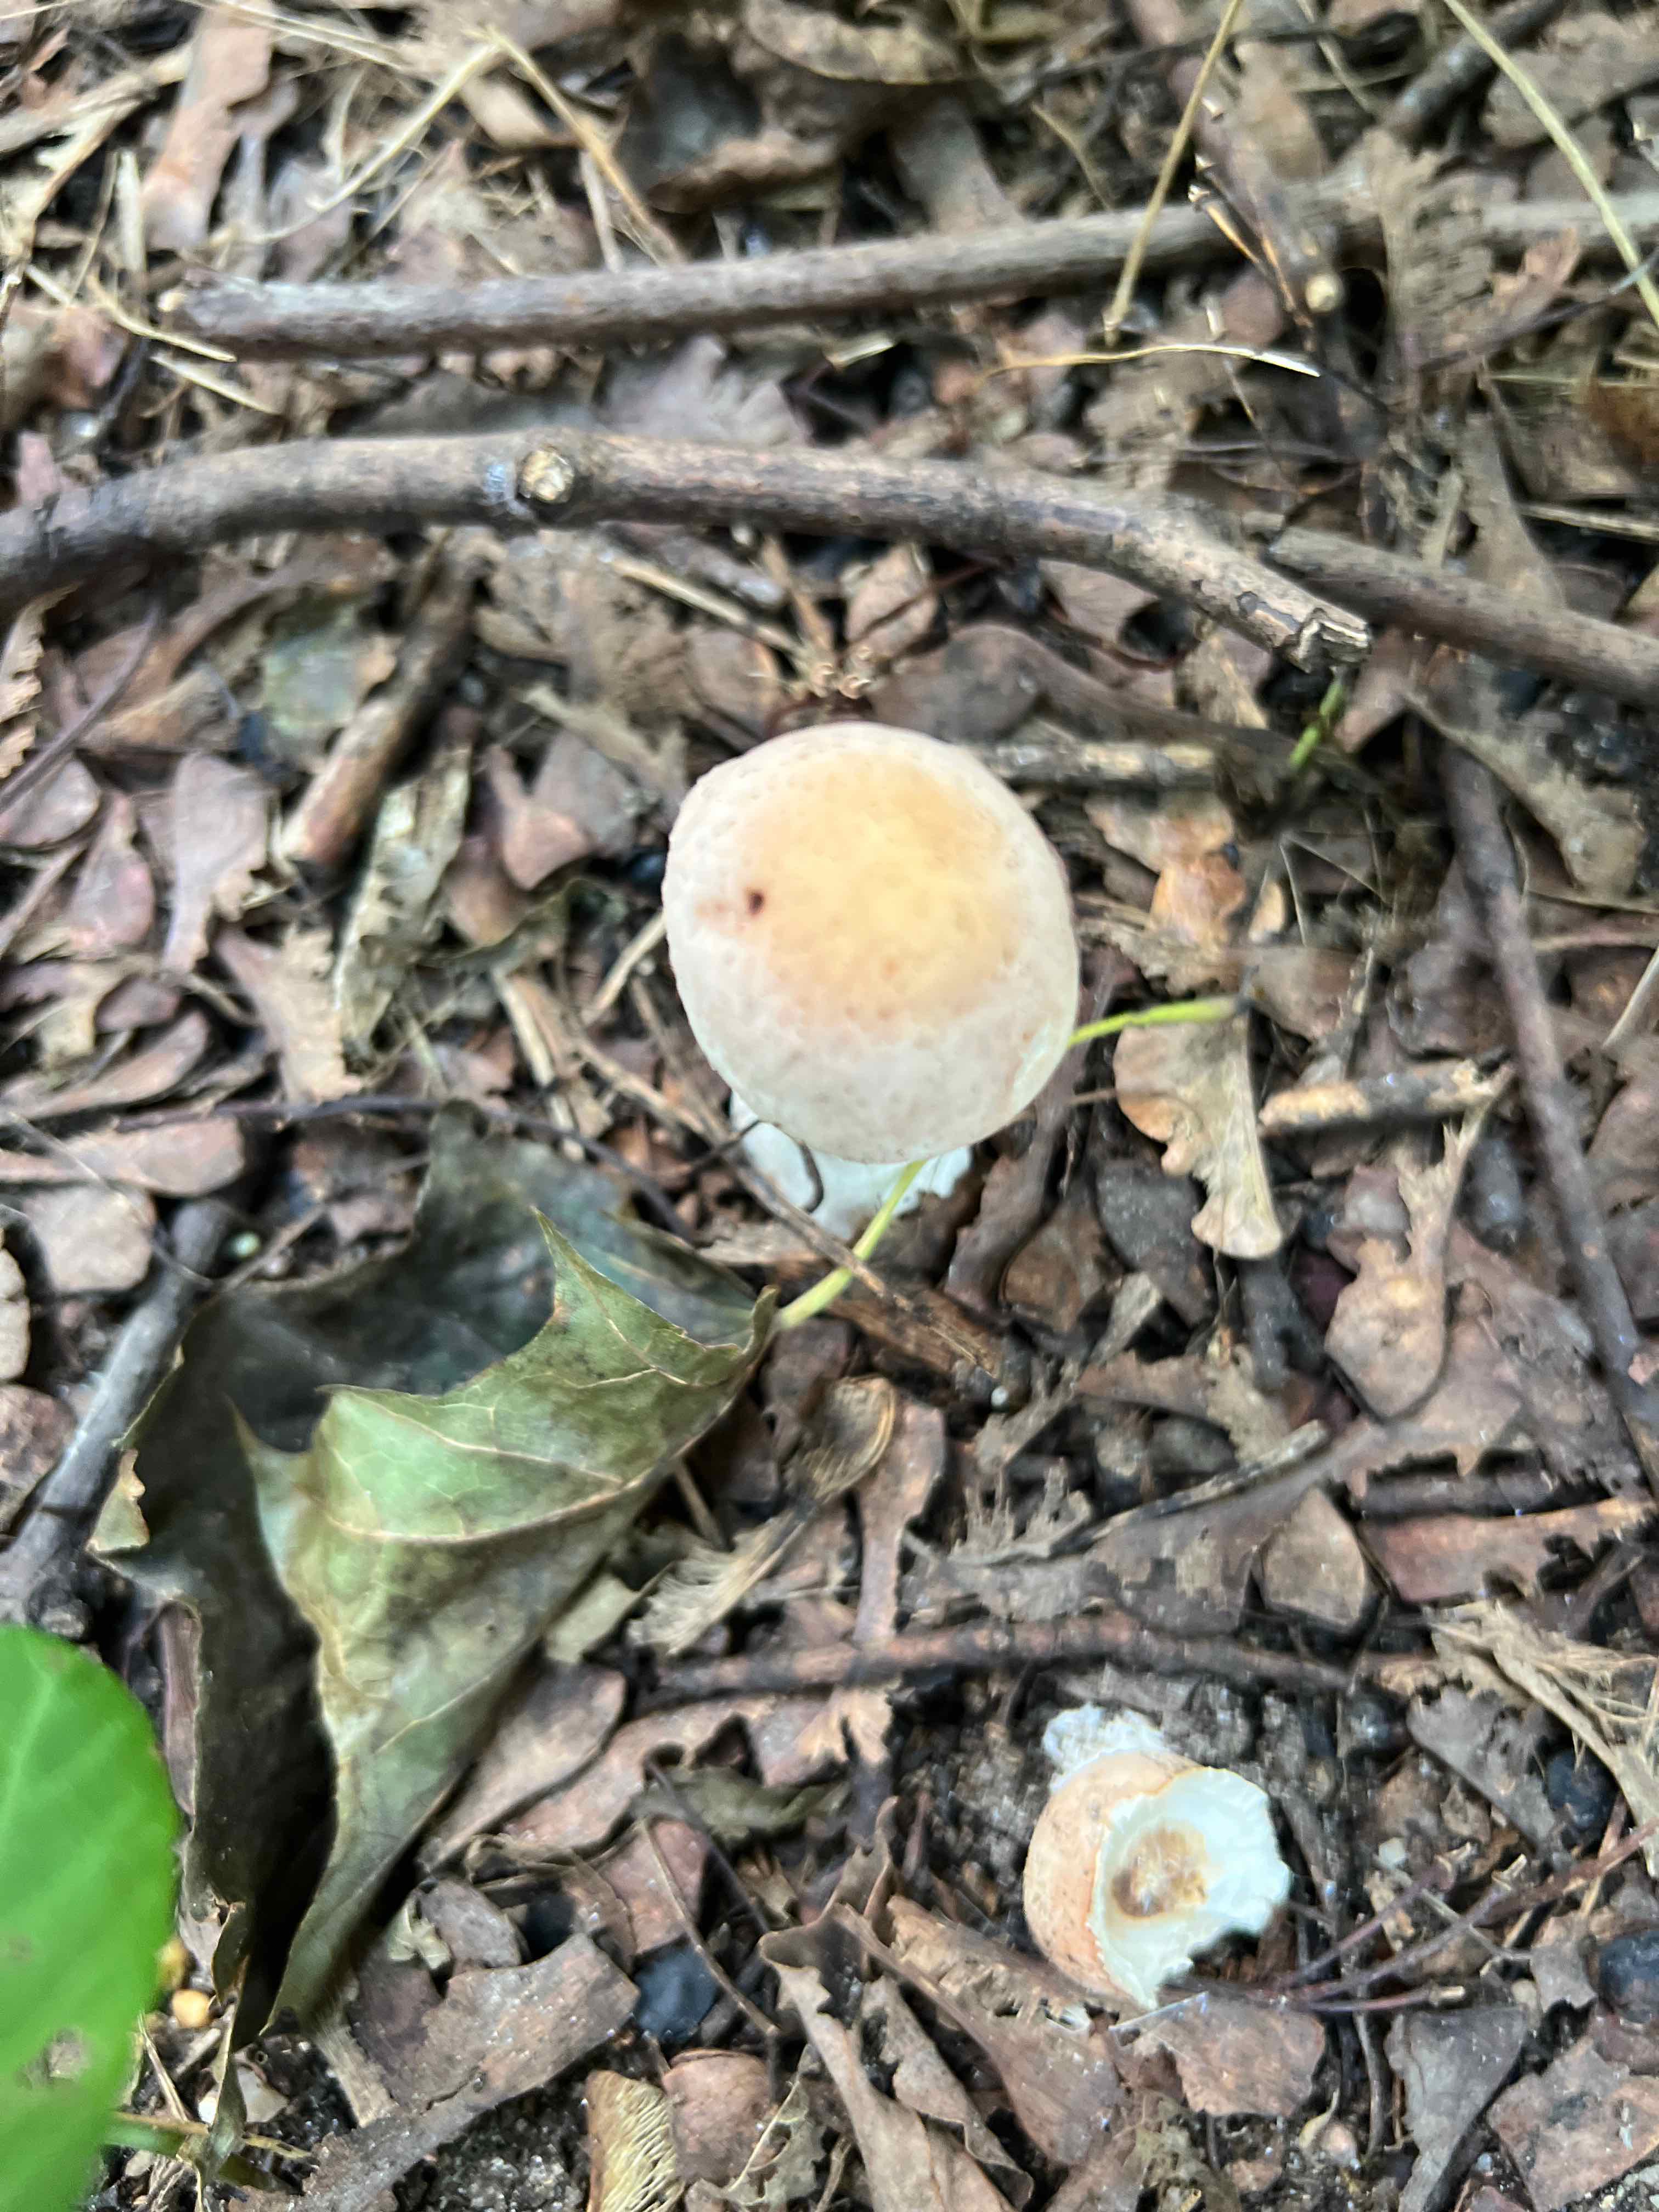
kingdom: Fungi
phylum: Basidiomycota
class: Agaricomycetes
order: Agaricales
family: Agaricaceae
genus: Chlorophyllum
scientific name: Chlorophyllum
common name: rabarberhat
